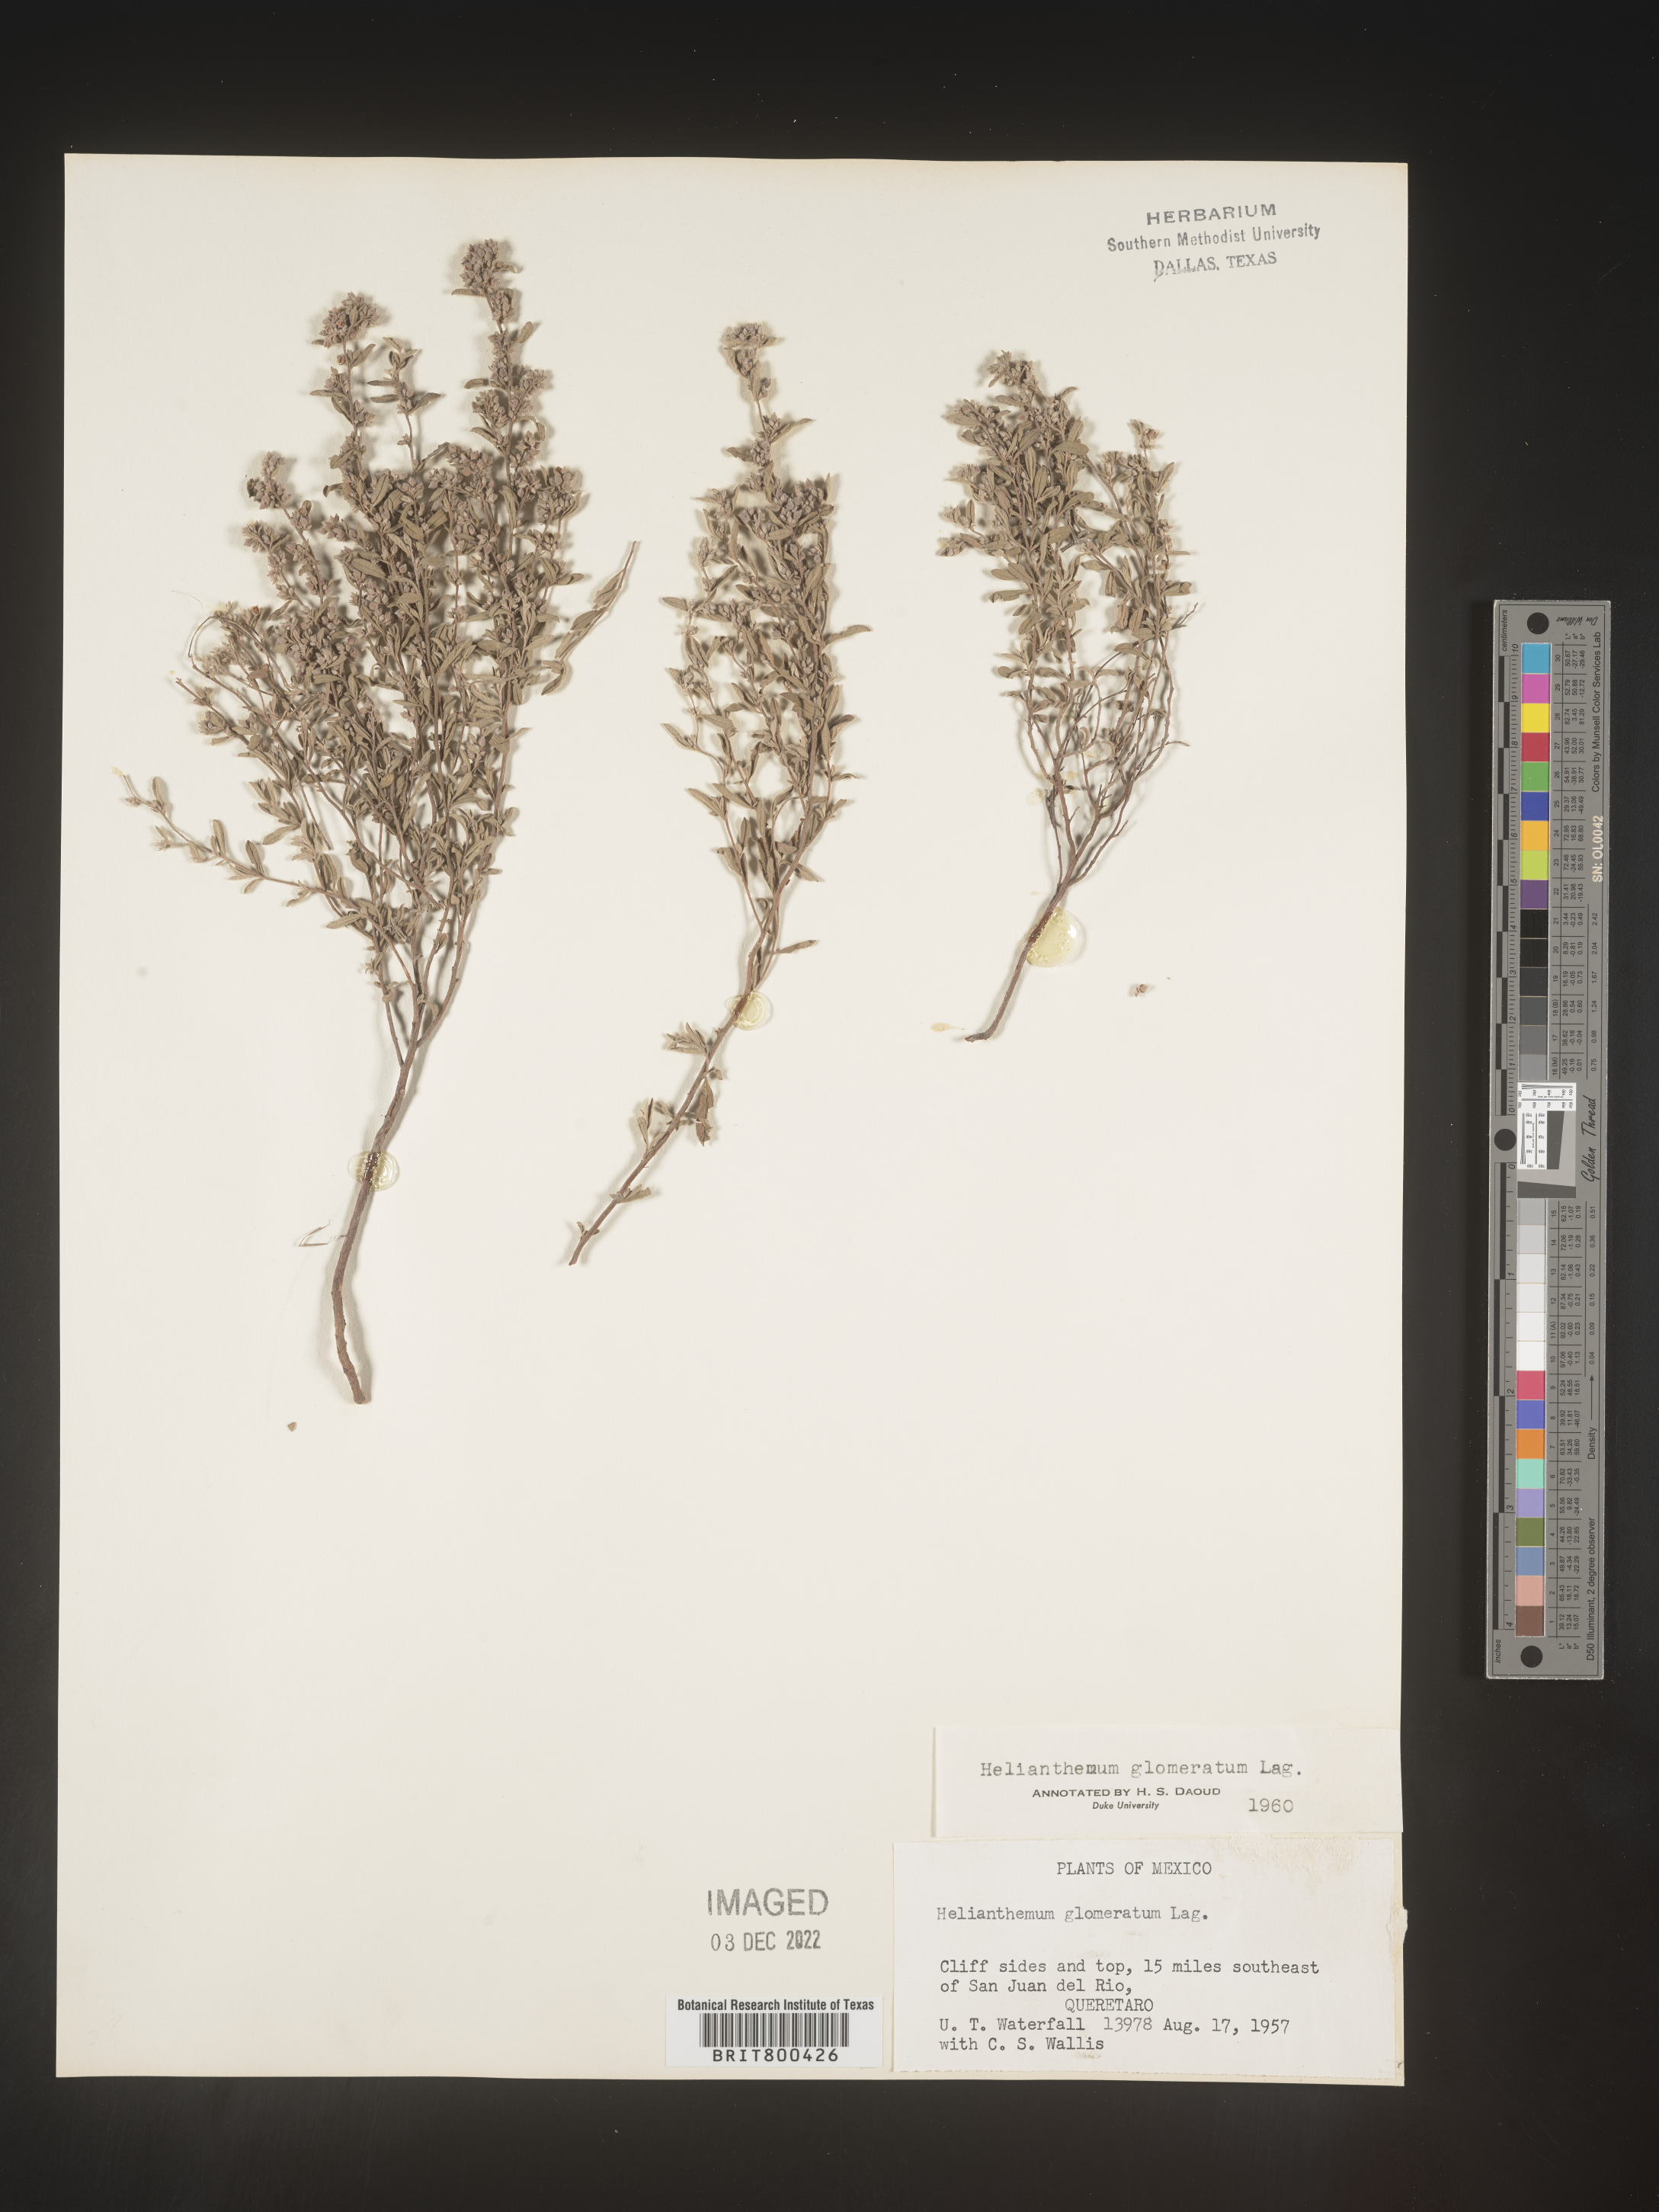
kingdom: Plantae
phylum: Tracheophyta
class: Magnoliopsida
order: Malvales
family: Cistaceae
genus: Helianthemum
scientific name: Helianthemum
